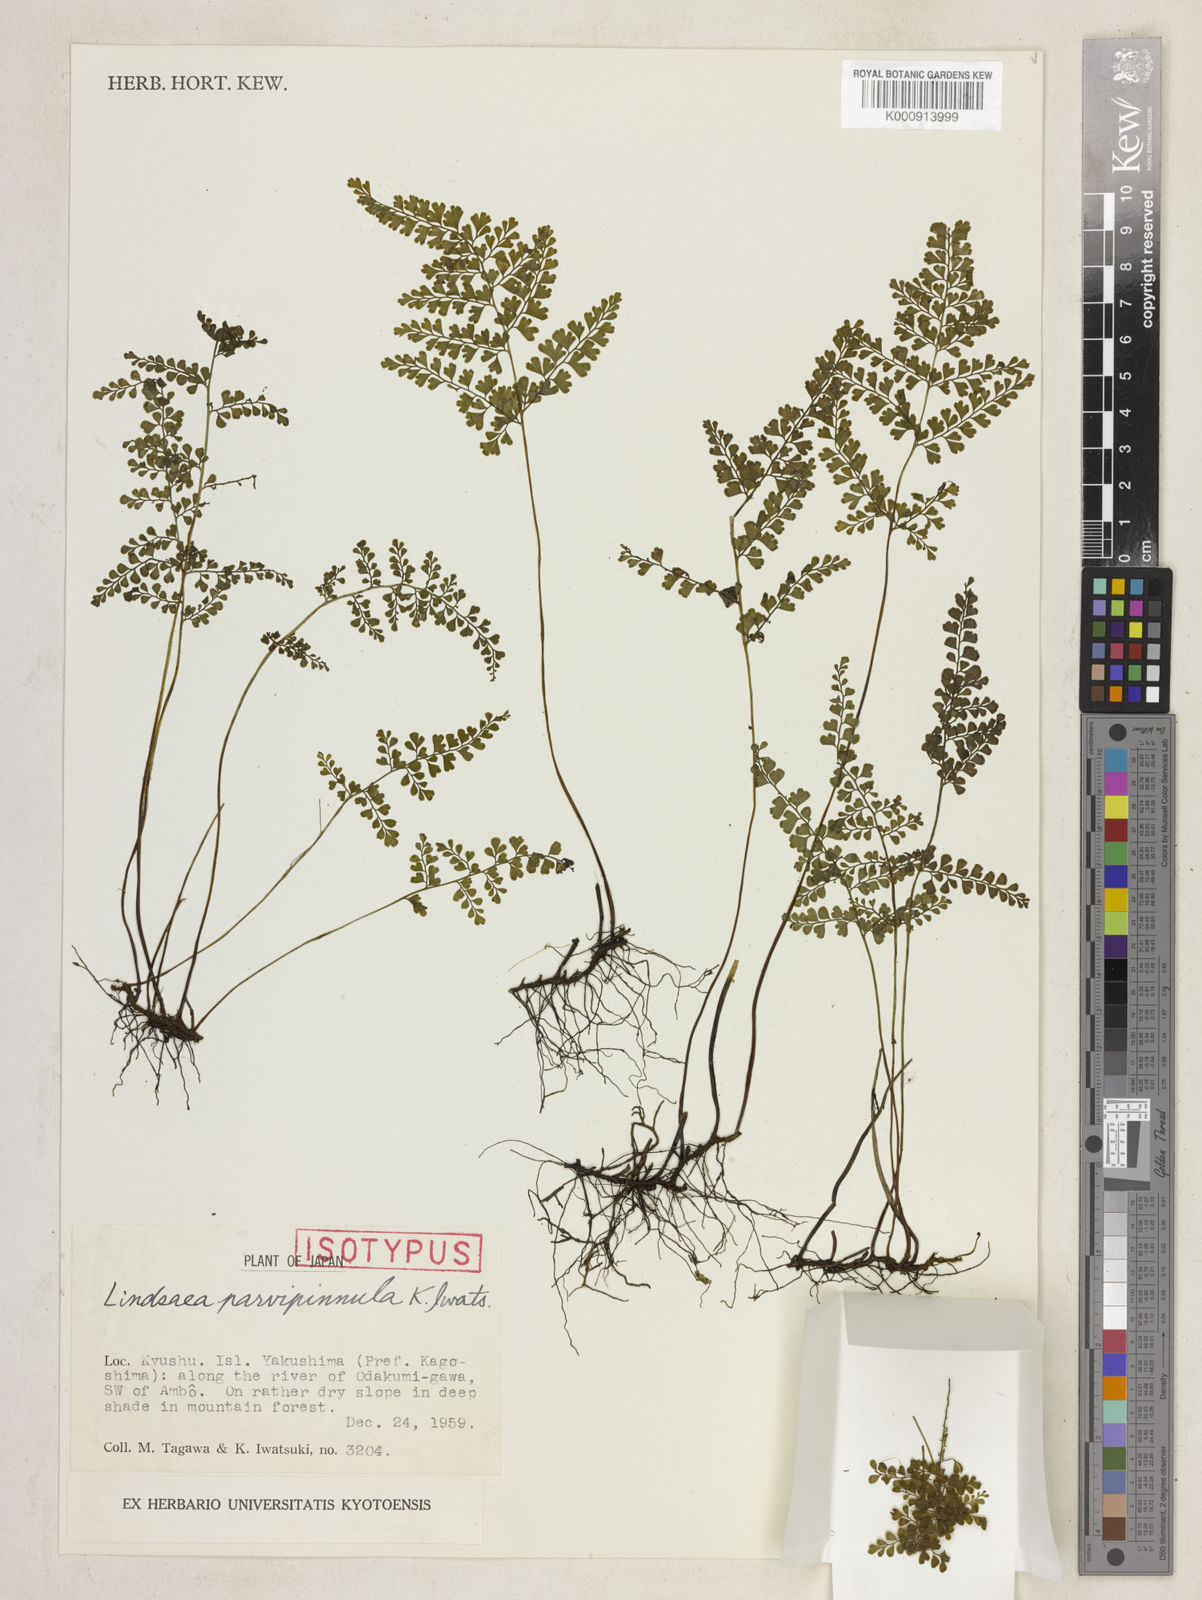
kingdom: Plantae
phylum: Tracheophyta
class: Polypodiopsida
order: Polypodiales
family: Lindsaeaceae
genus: Lindsaea
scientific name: Lindsaea cambodgensis
